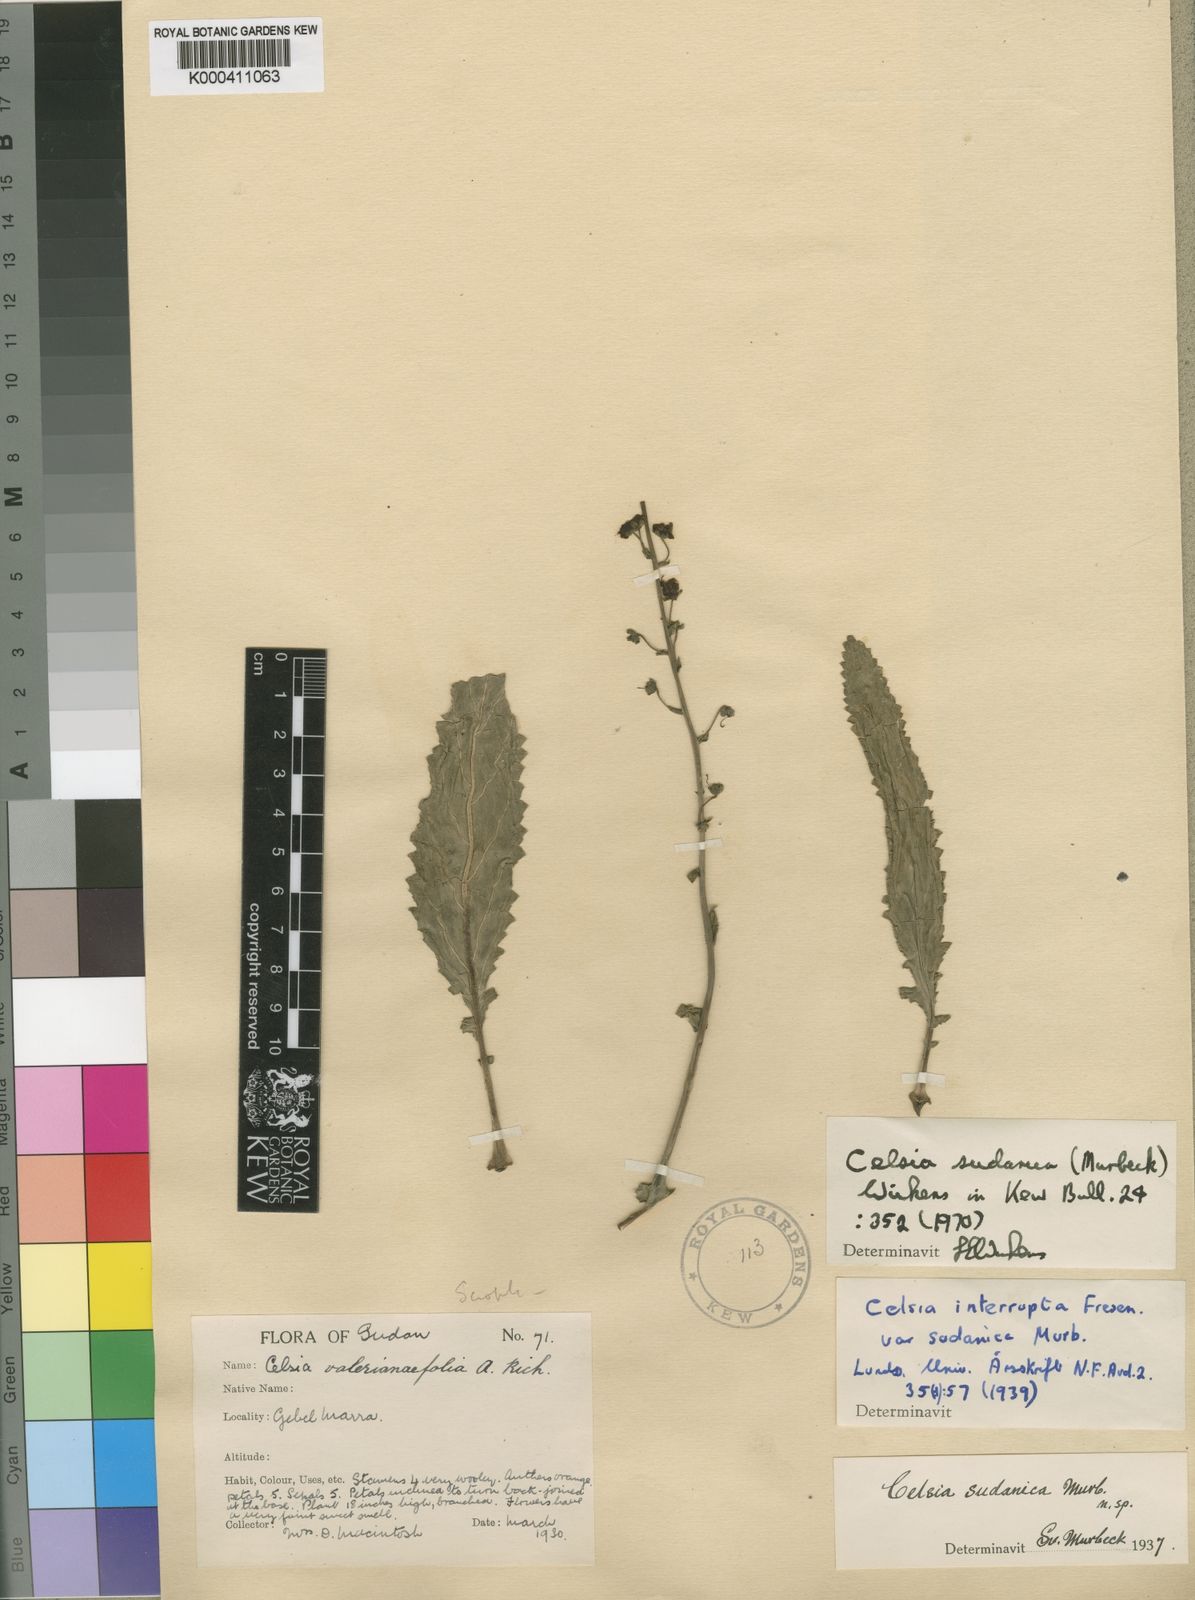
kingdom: Plantae
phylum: Tracheophyta
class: Magnoliopsida
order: Lamiales
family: Scrophulariaceae
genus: Verbascum
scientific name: Verbascum interruptum
